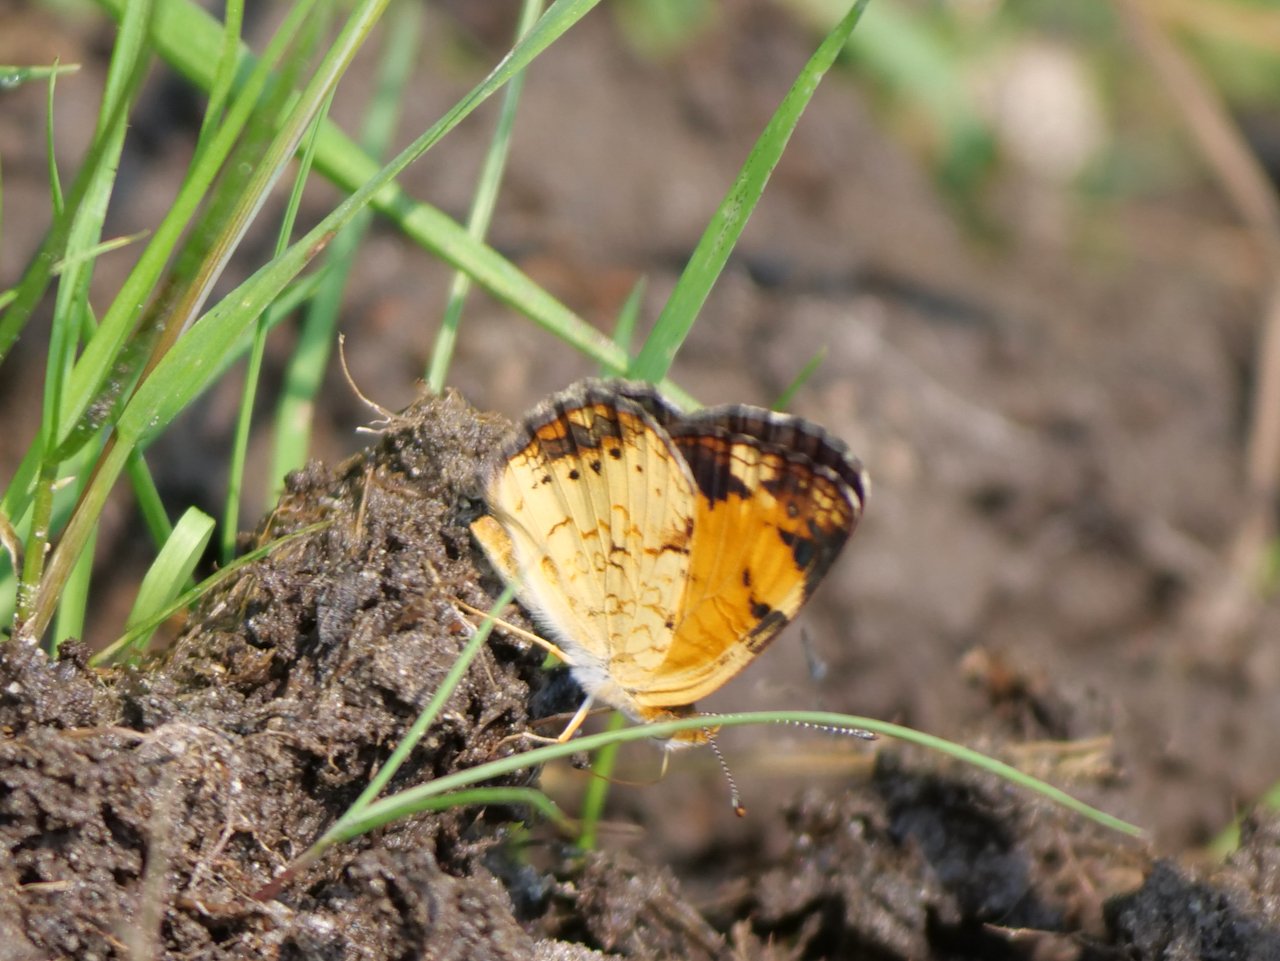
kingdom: Animalia
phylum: Arthropoda
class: Insecta
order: Lepidoptera
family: Nymphalidae
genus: Phyciodes
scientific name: Phyciodes tharos
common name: Northern Crescent
